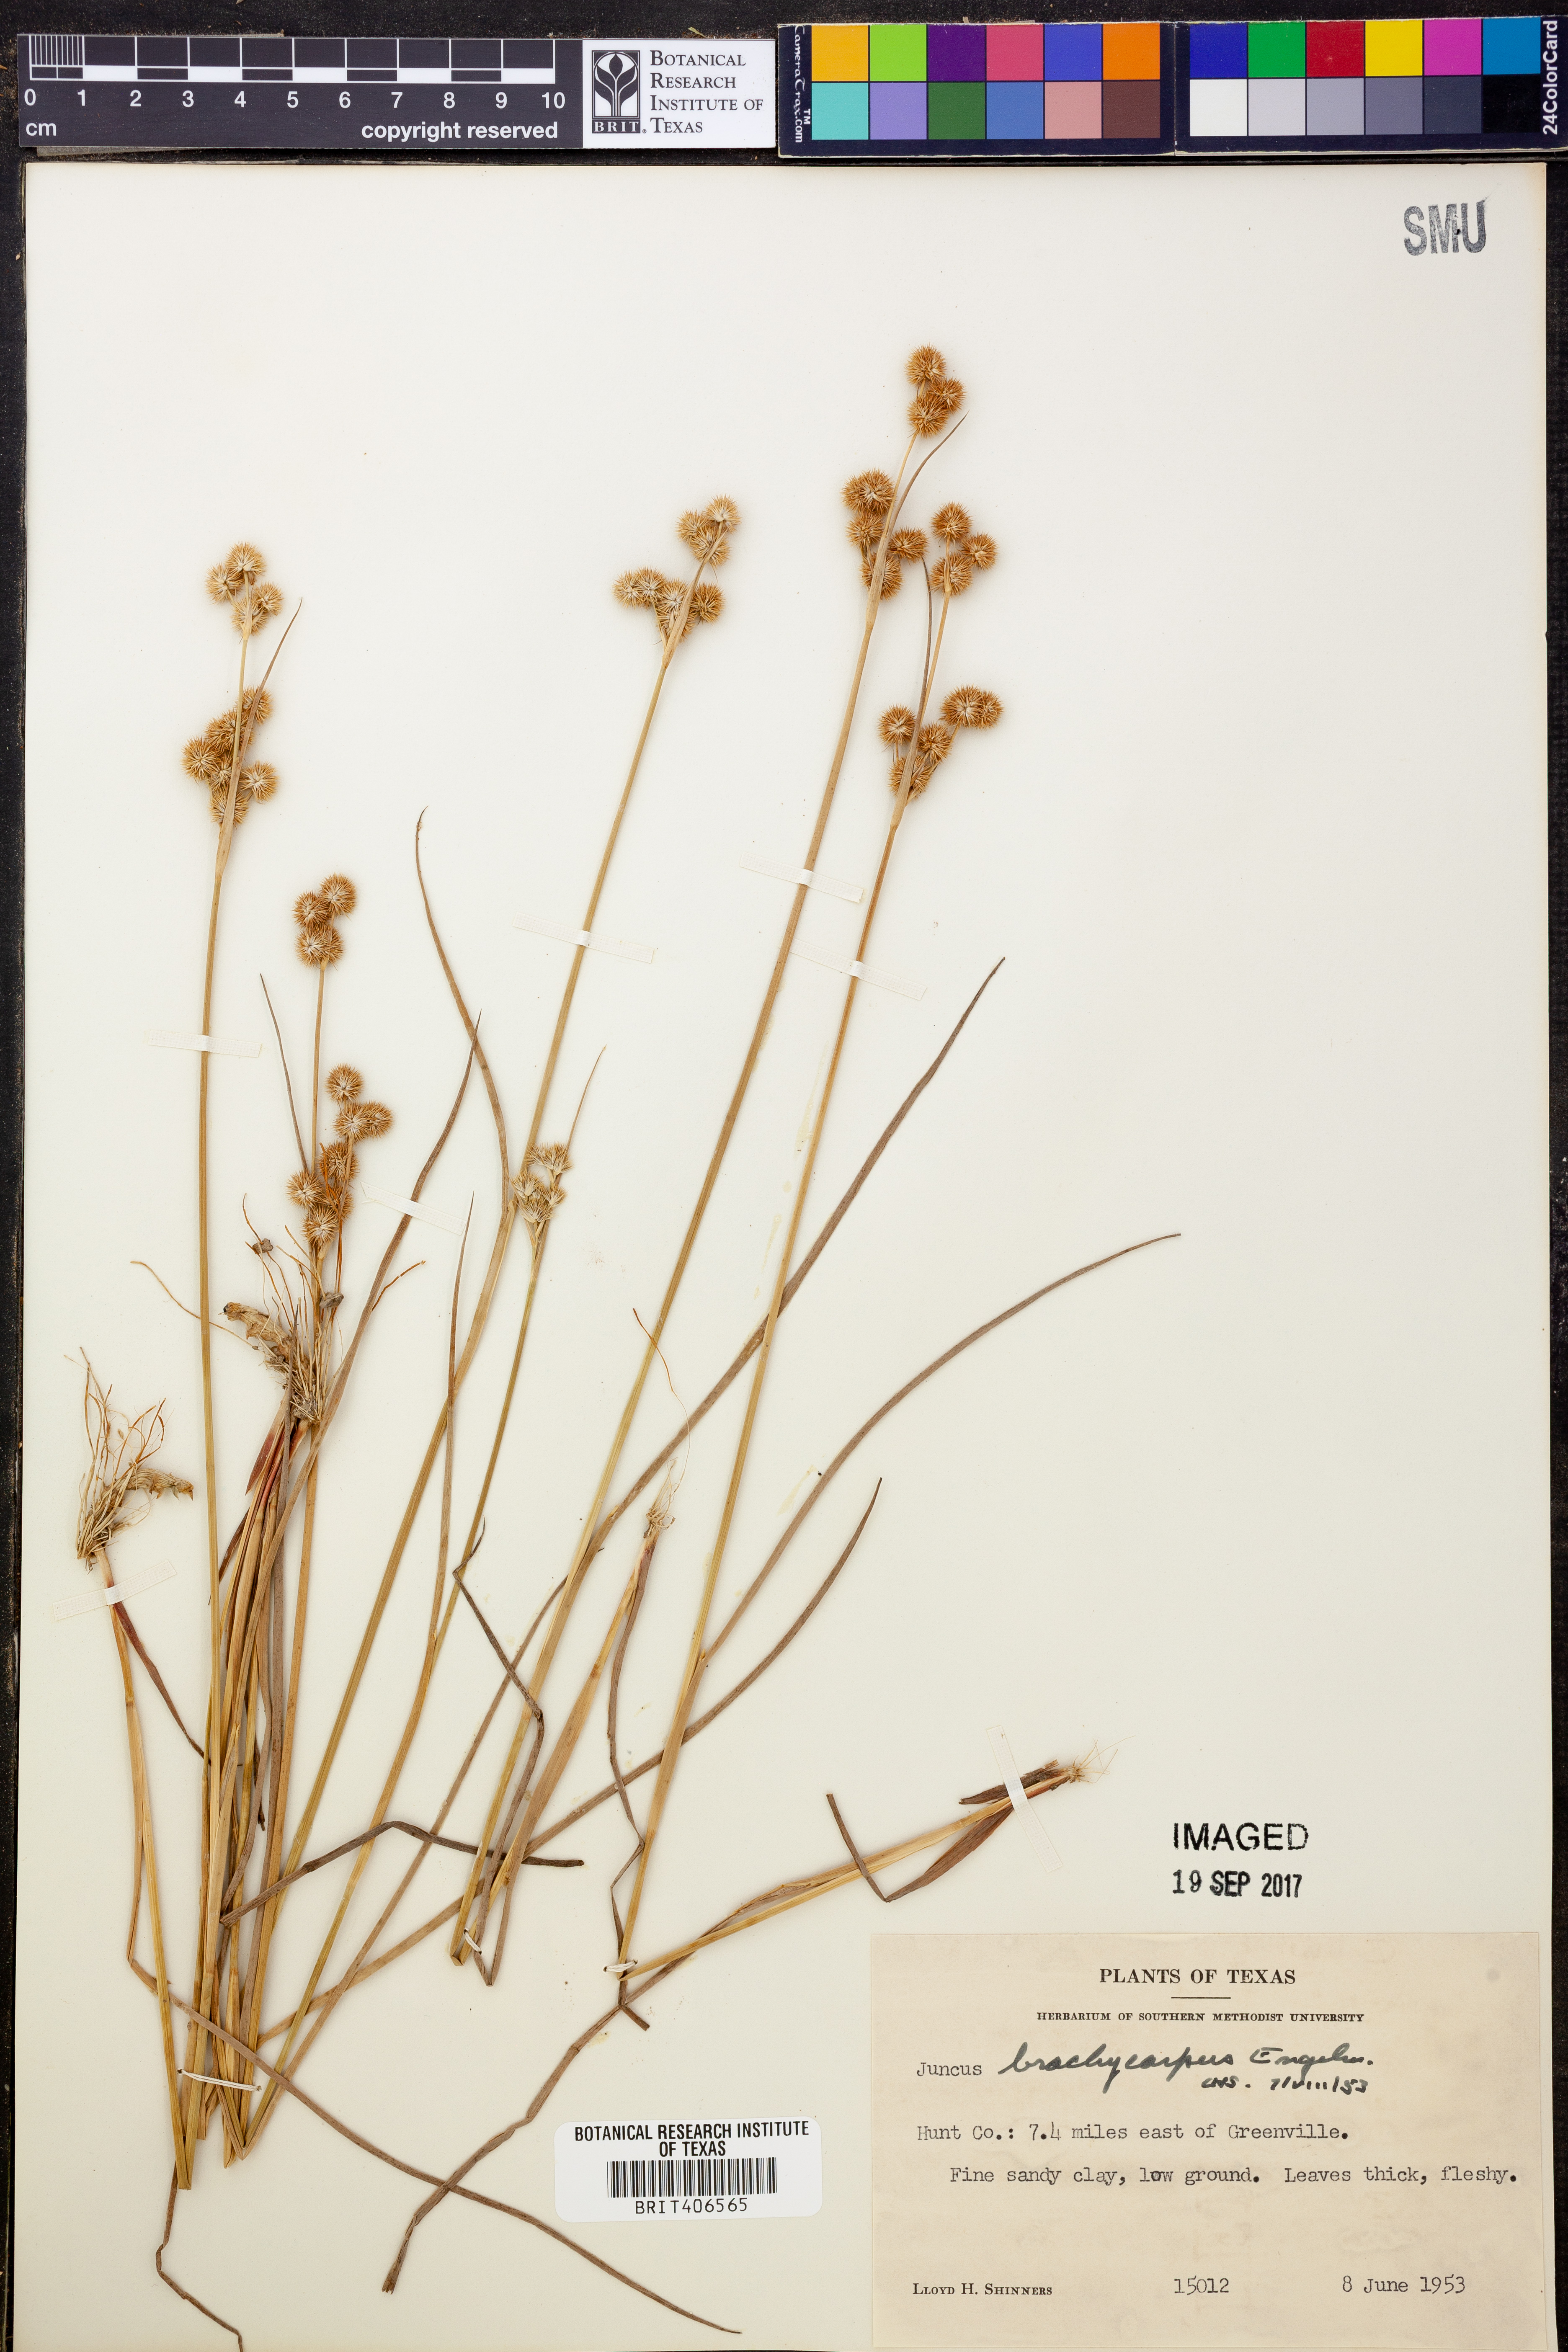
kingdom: Plantae
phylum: Tracheophyta
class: Liliopsida
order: Poales
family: Juncaceae
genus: Juncus
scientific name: Juncus brachycarpus
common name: Shore rush
